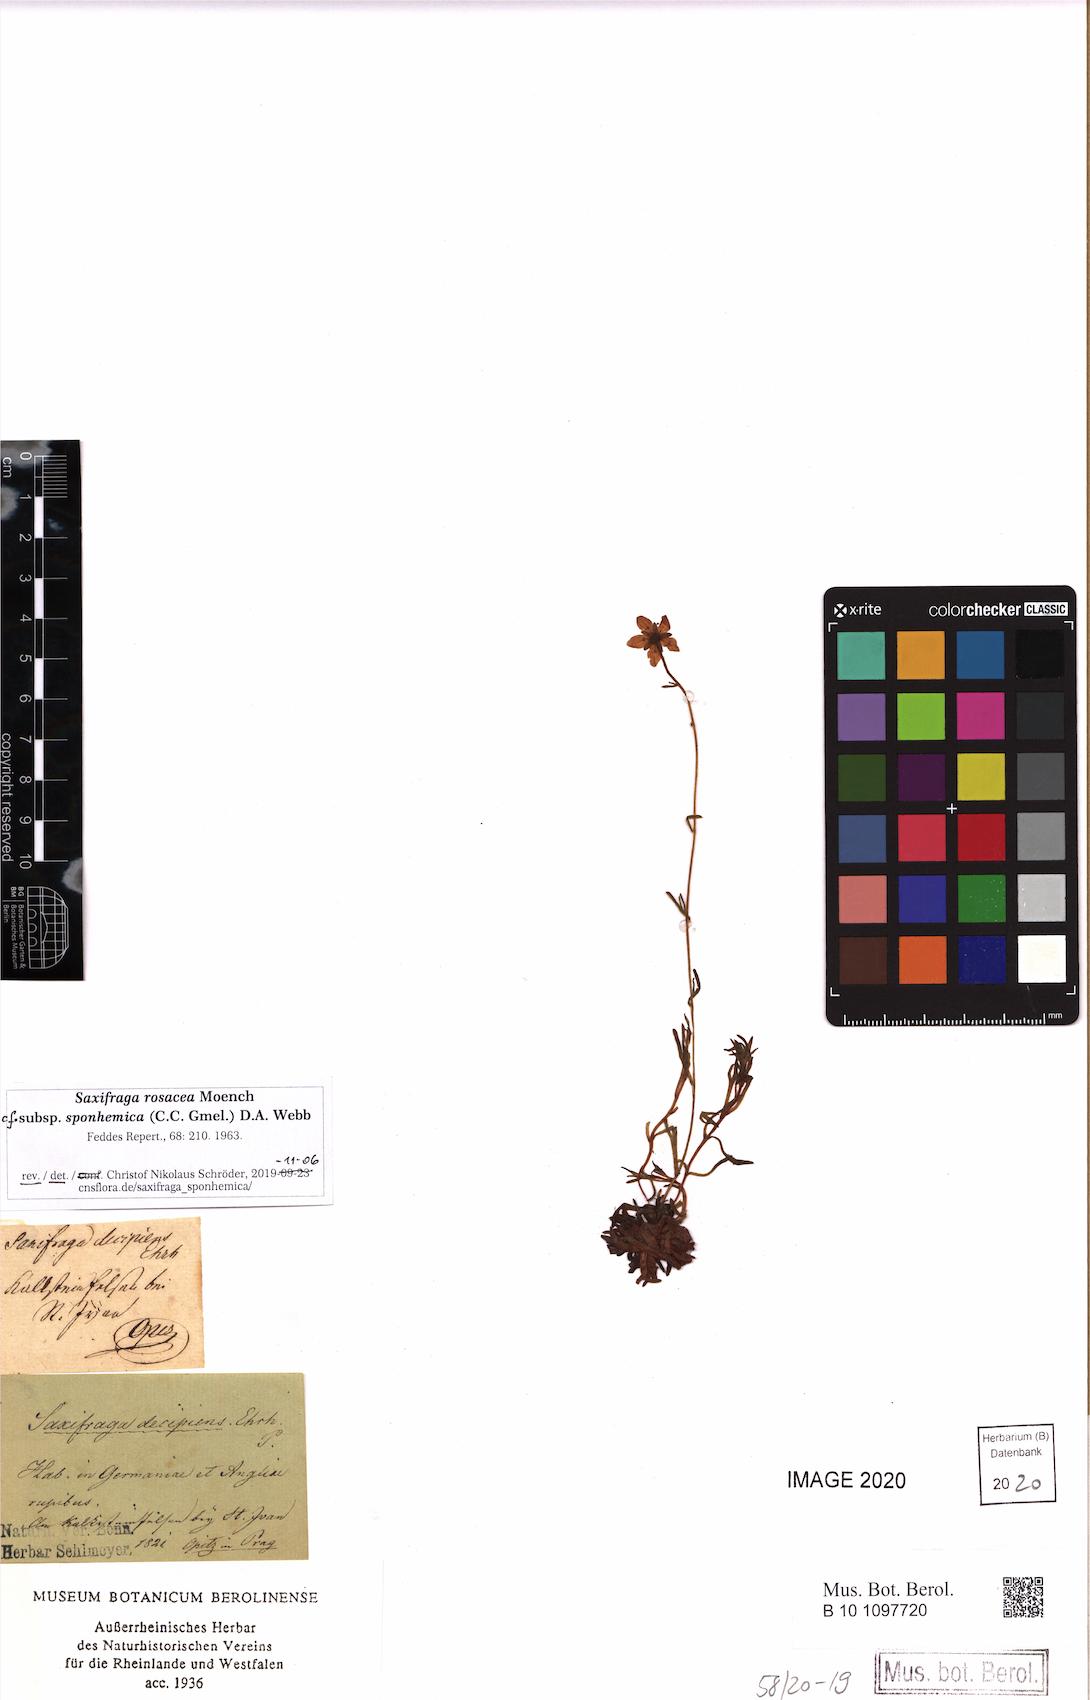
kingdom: Plantae
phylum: Tracheophyta
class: Magnoliopsida
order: Saxifragales
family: Saxifragaceae
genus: Saxifraga
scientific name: Saxifraga rosacea
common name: Irish saxifrage
